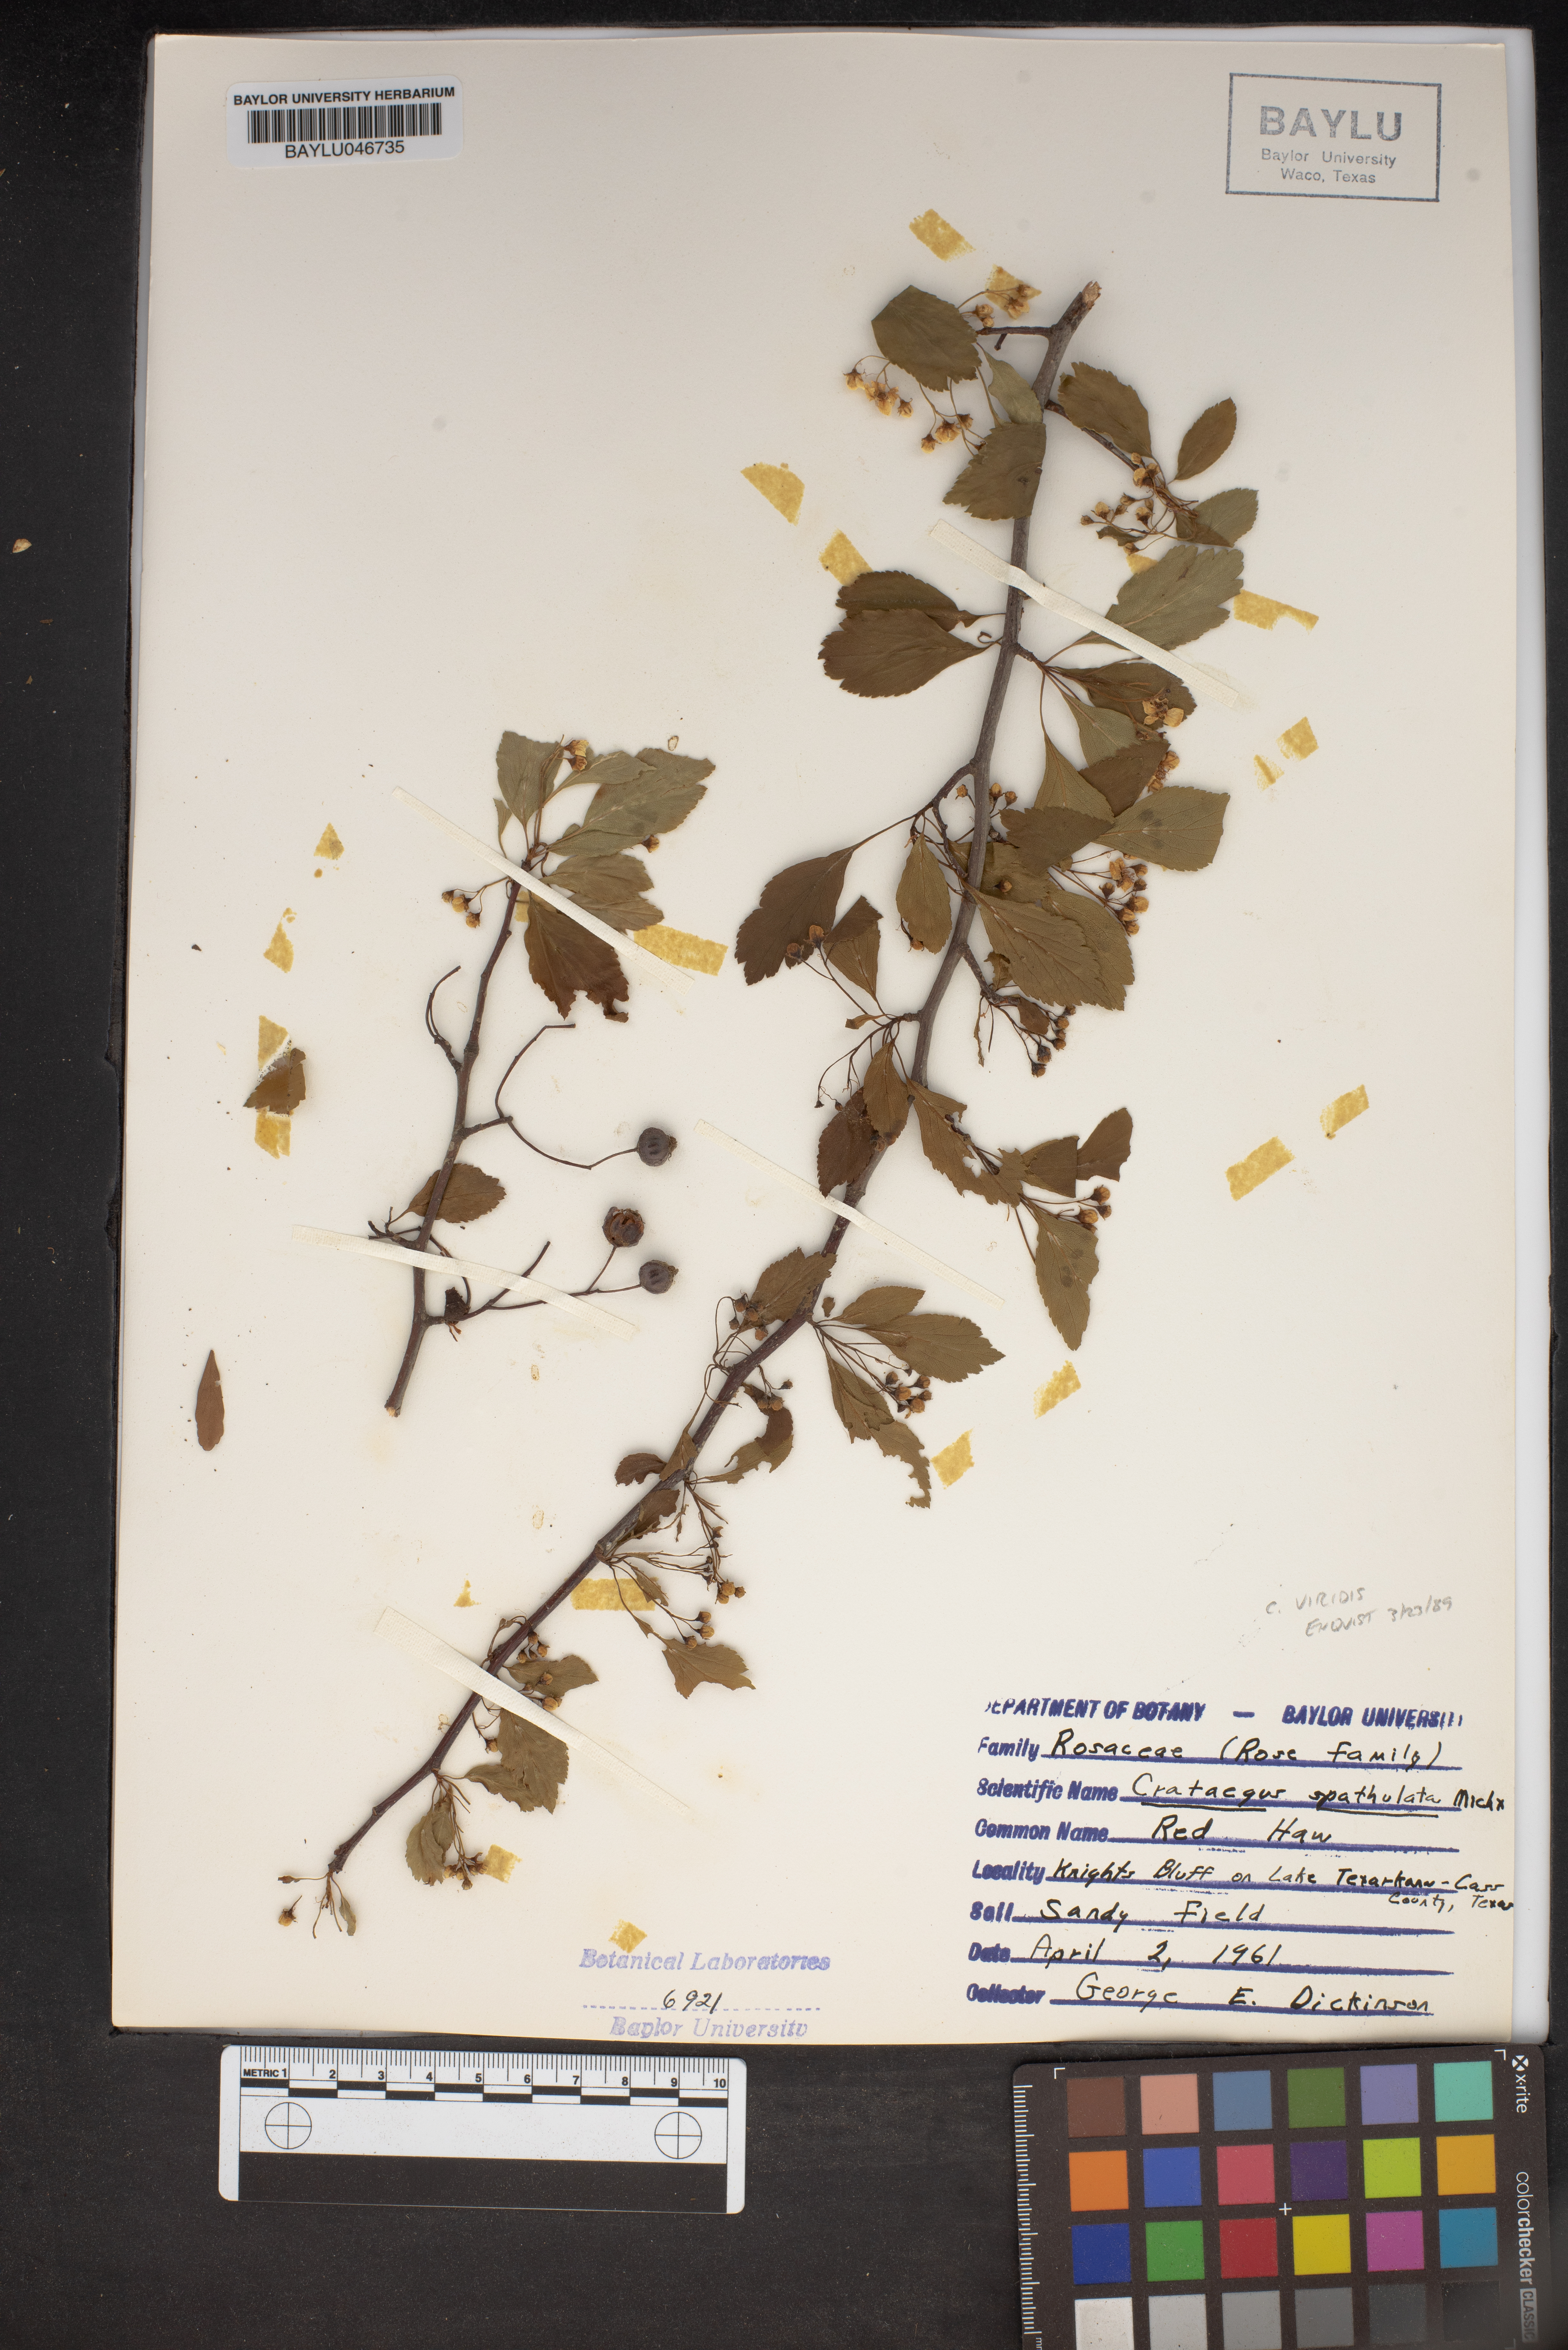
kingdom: Plantae
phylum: Tracheophyta
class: Magnoliopsida
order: Rosales
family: Rosaceae
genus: Crataegus
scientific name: Crataegus spathulata
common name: Littlehip hawthorn
